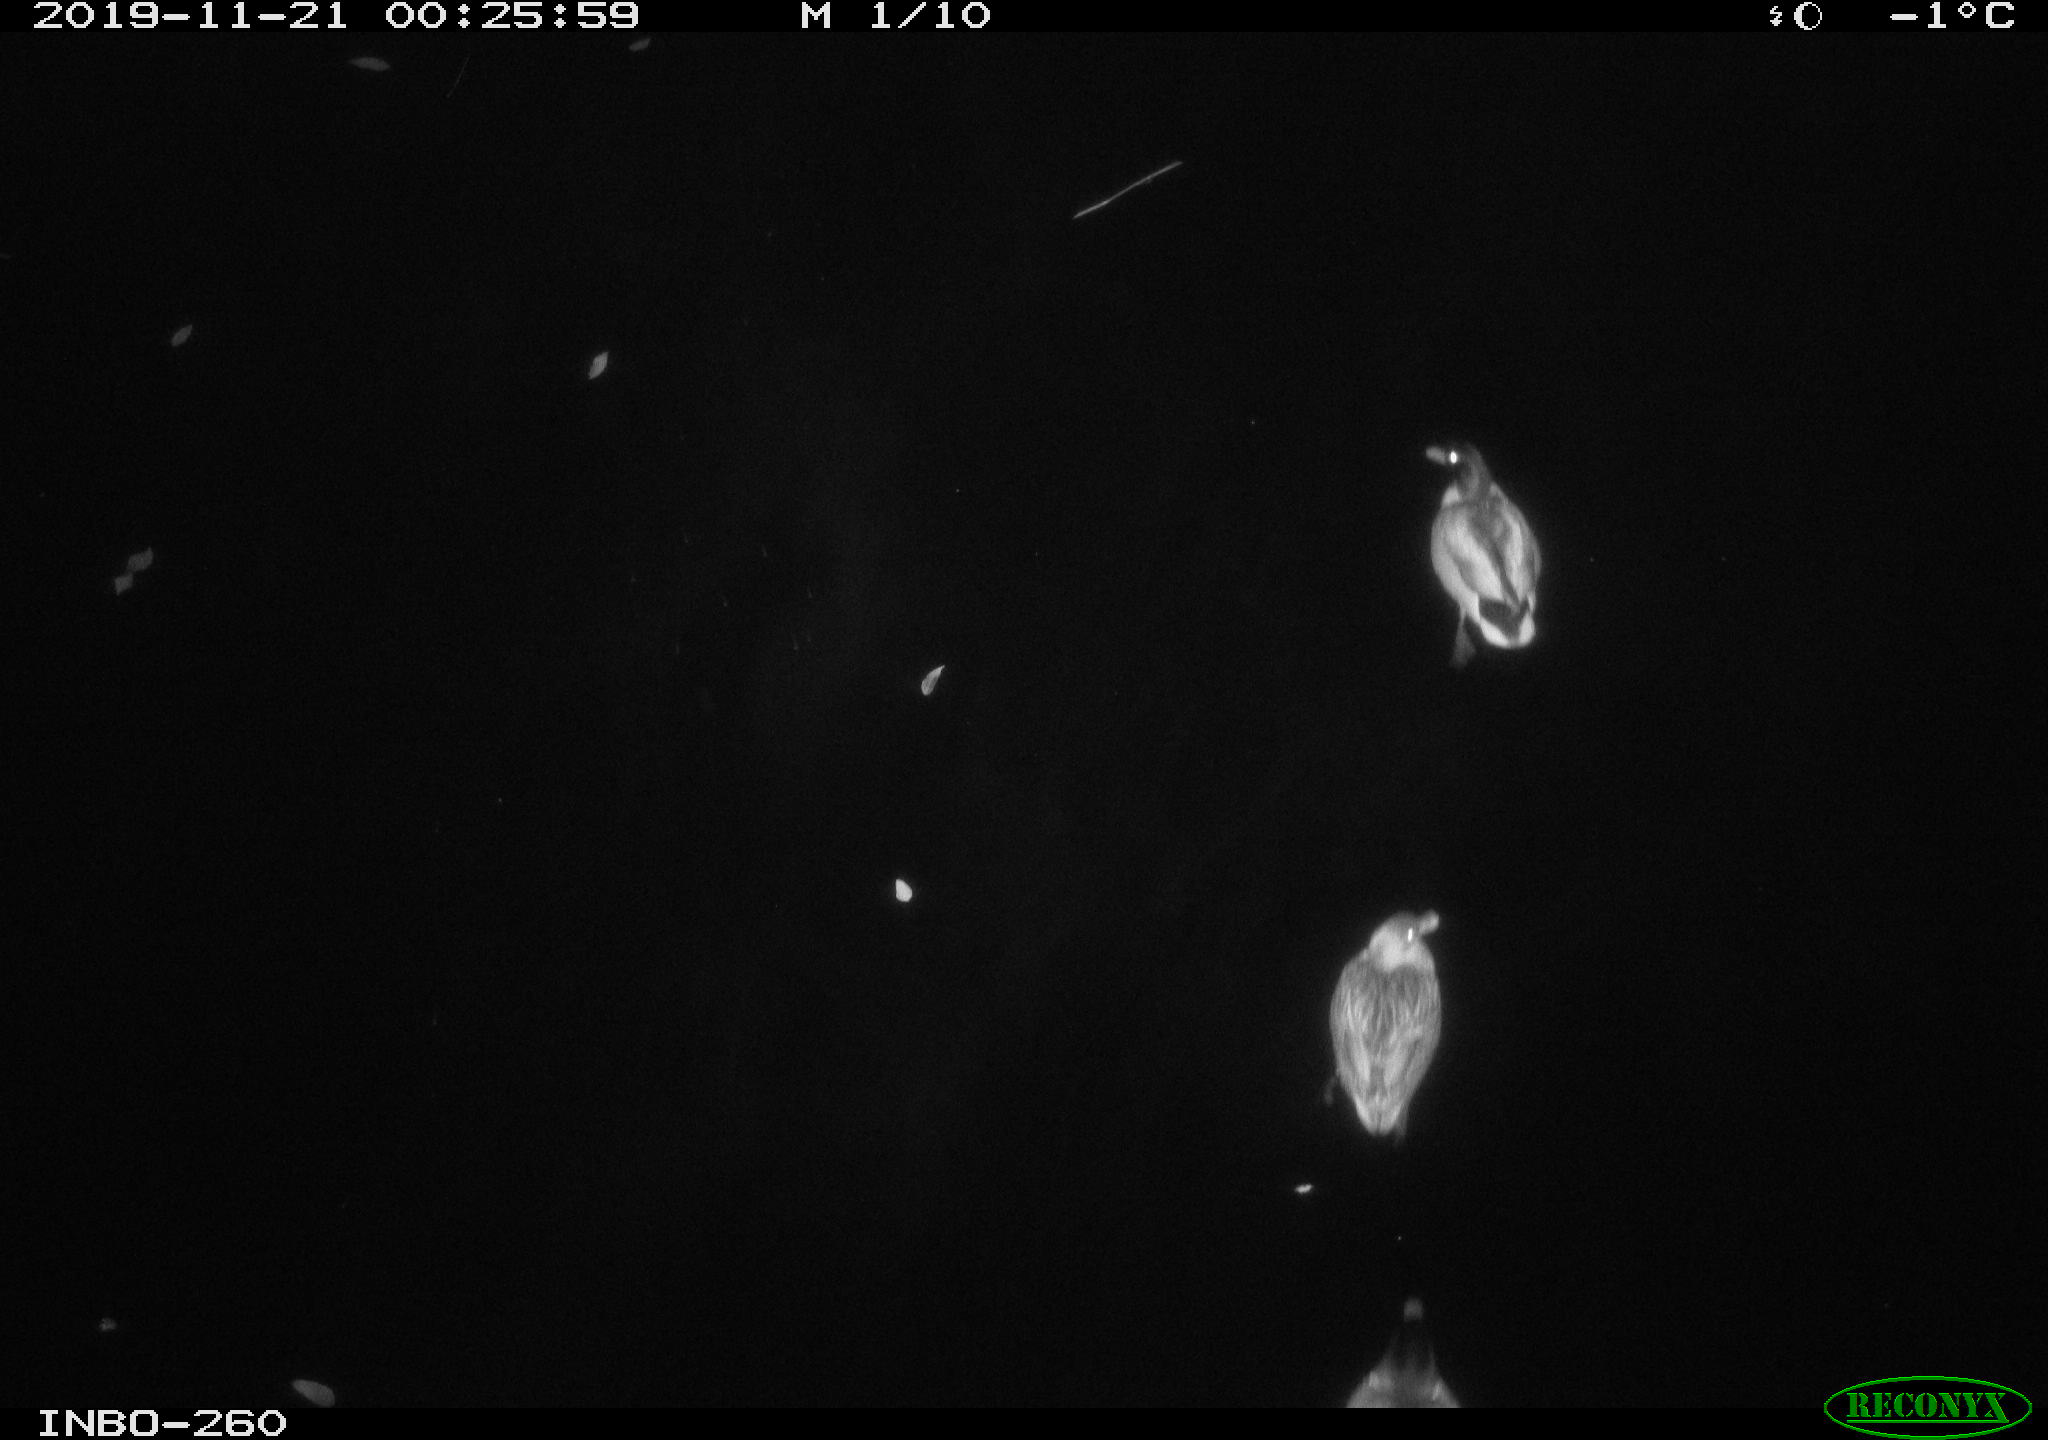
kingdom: Animalia
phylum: Chordata
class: Aves
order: Anseriformes
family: Anatidae
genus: Anas
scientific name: Anas platyrhynchos
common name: Mallard
